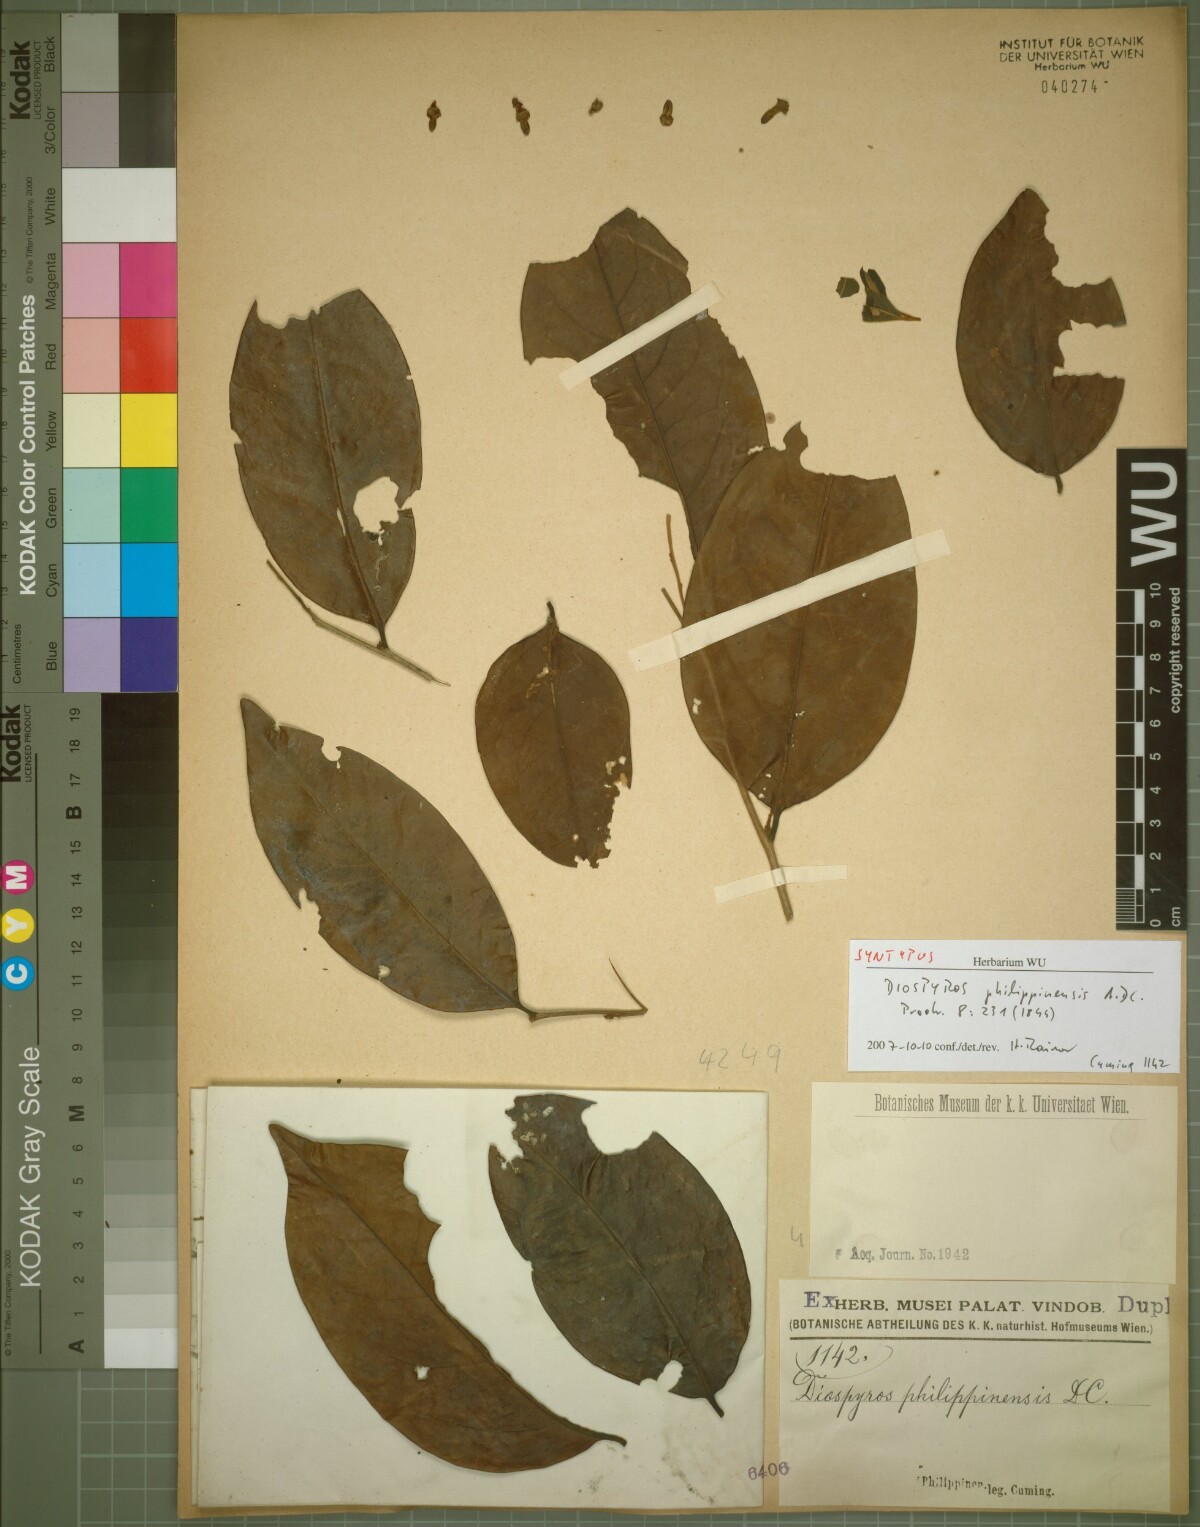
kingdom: Plantae
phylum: Tracheophyta
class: Magnoliopsida
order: Ericales
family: Ebenaceae
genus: Diospyros
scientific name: Diospyros philippinensis
